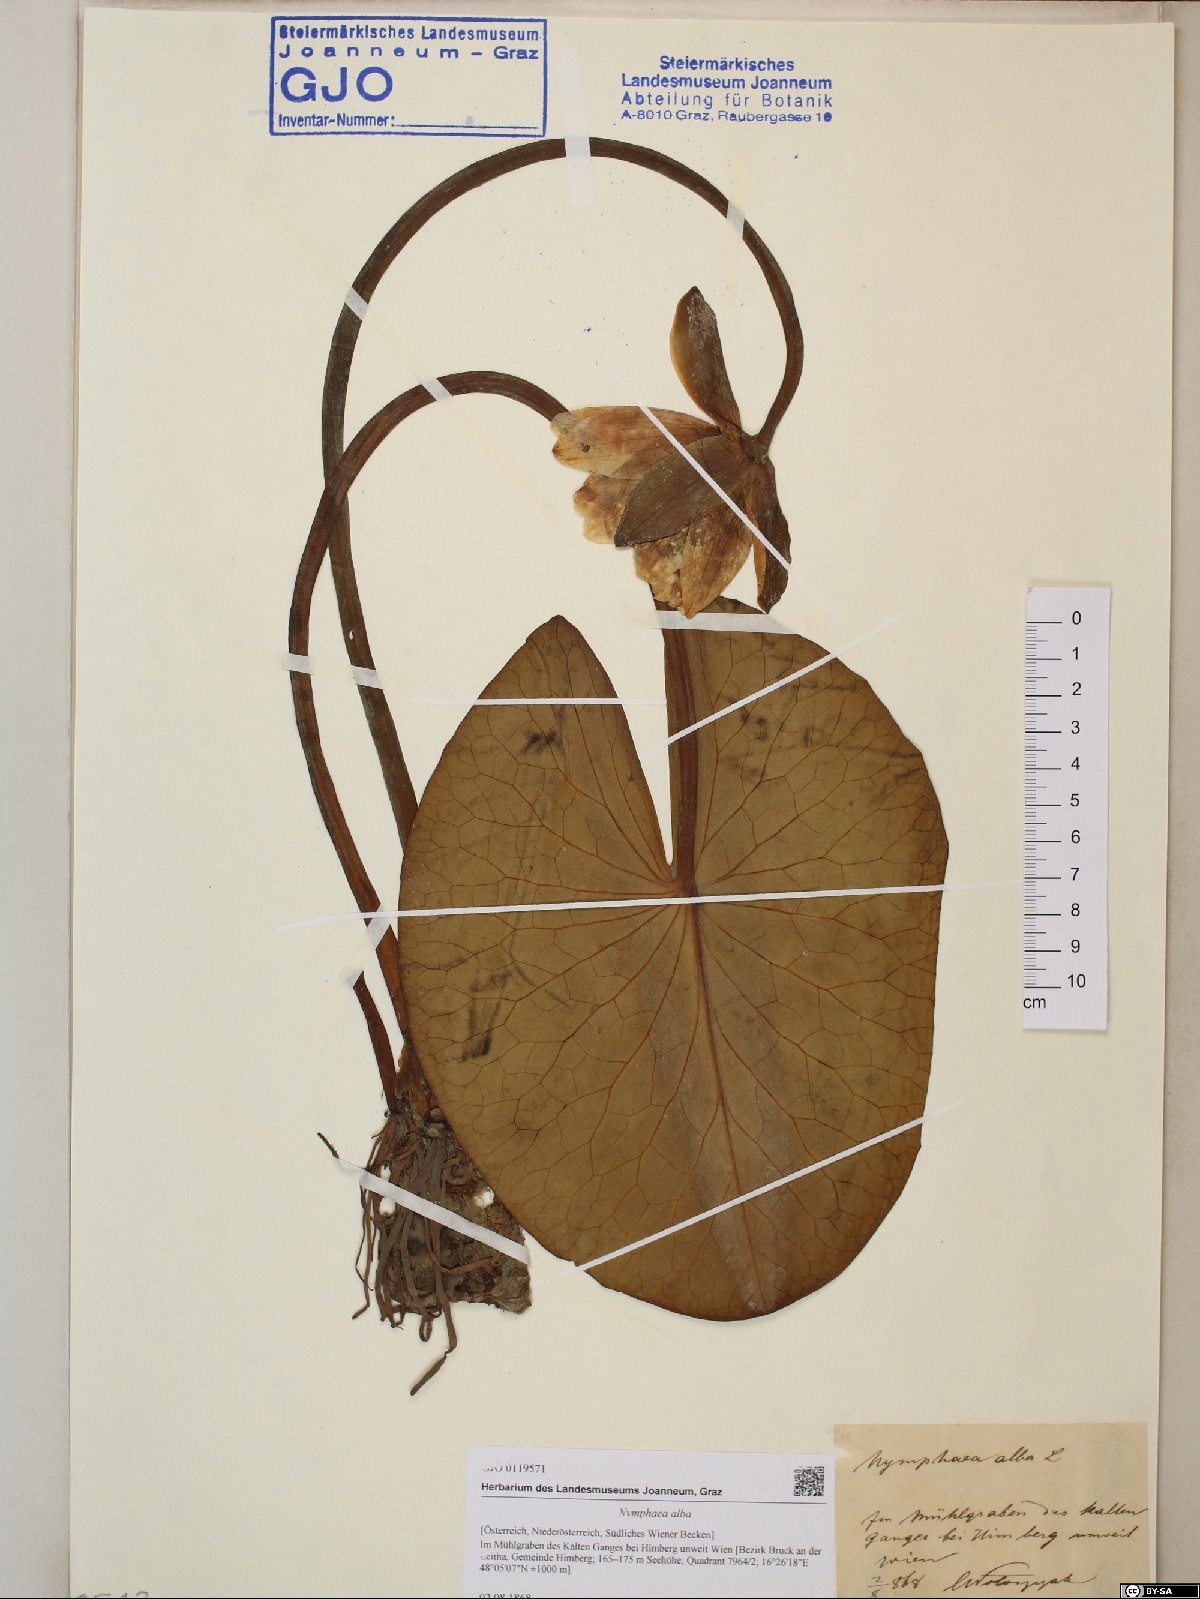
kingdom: Plantae
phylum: Tracheophyta
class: Magnoliopsida
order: Nymphaeales
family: Nymphaeaceae
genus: Nymphaea
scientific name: Nymphaea alba
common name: White water-lily
